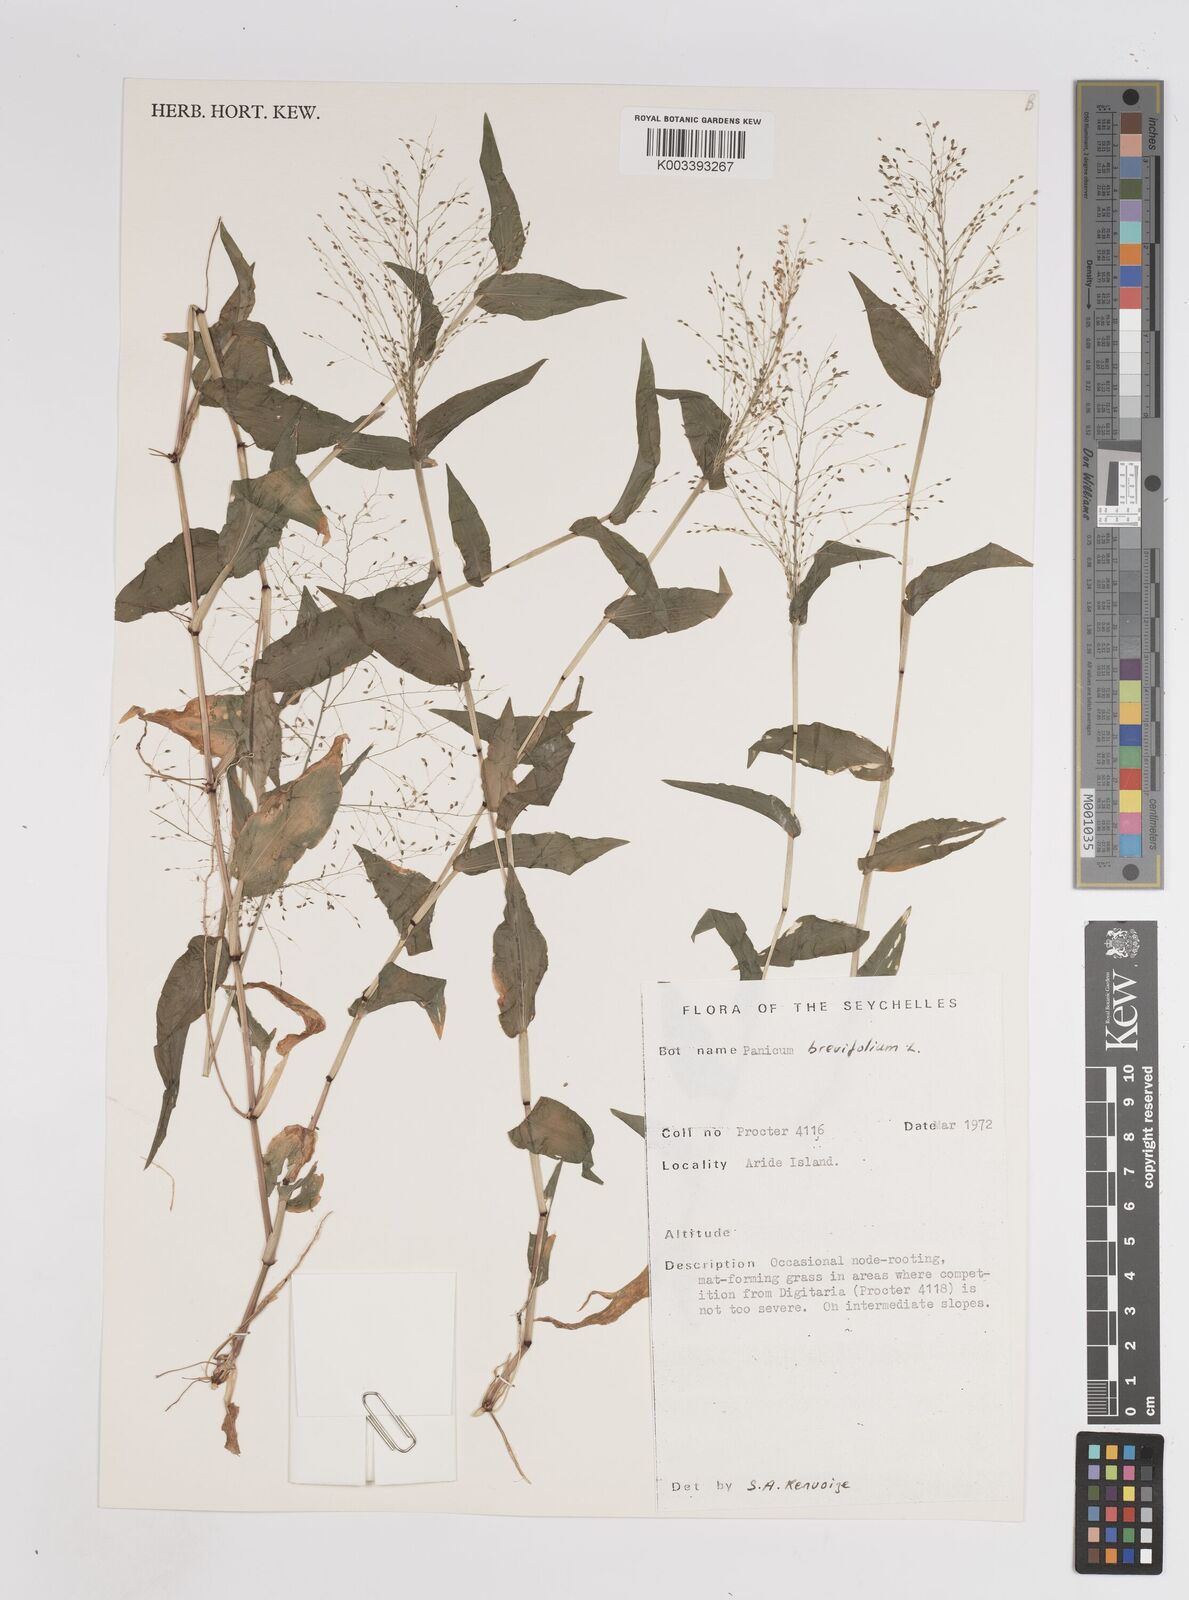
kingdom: Plantae
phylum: Tracheophyta
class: Liliopsida
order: Poales
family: Poaceae
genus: Panicum
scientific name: Panicum brevifolium
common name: Shortleaf panic grass
